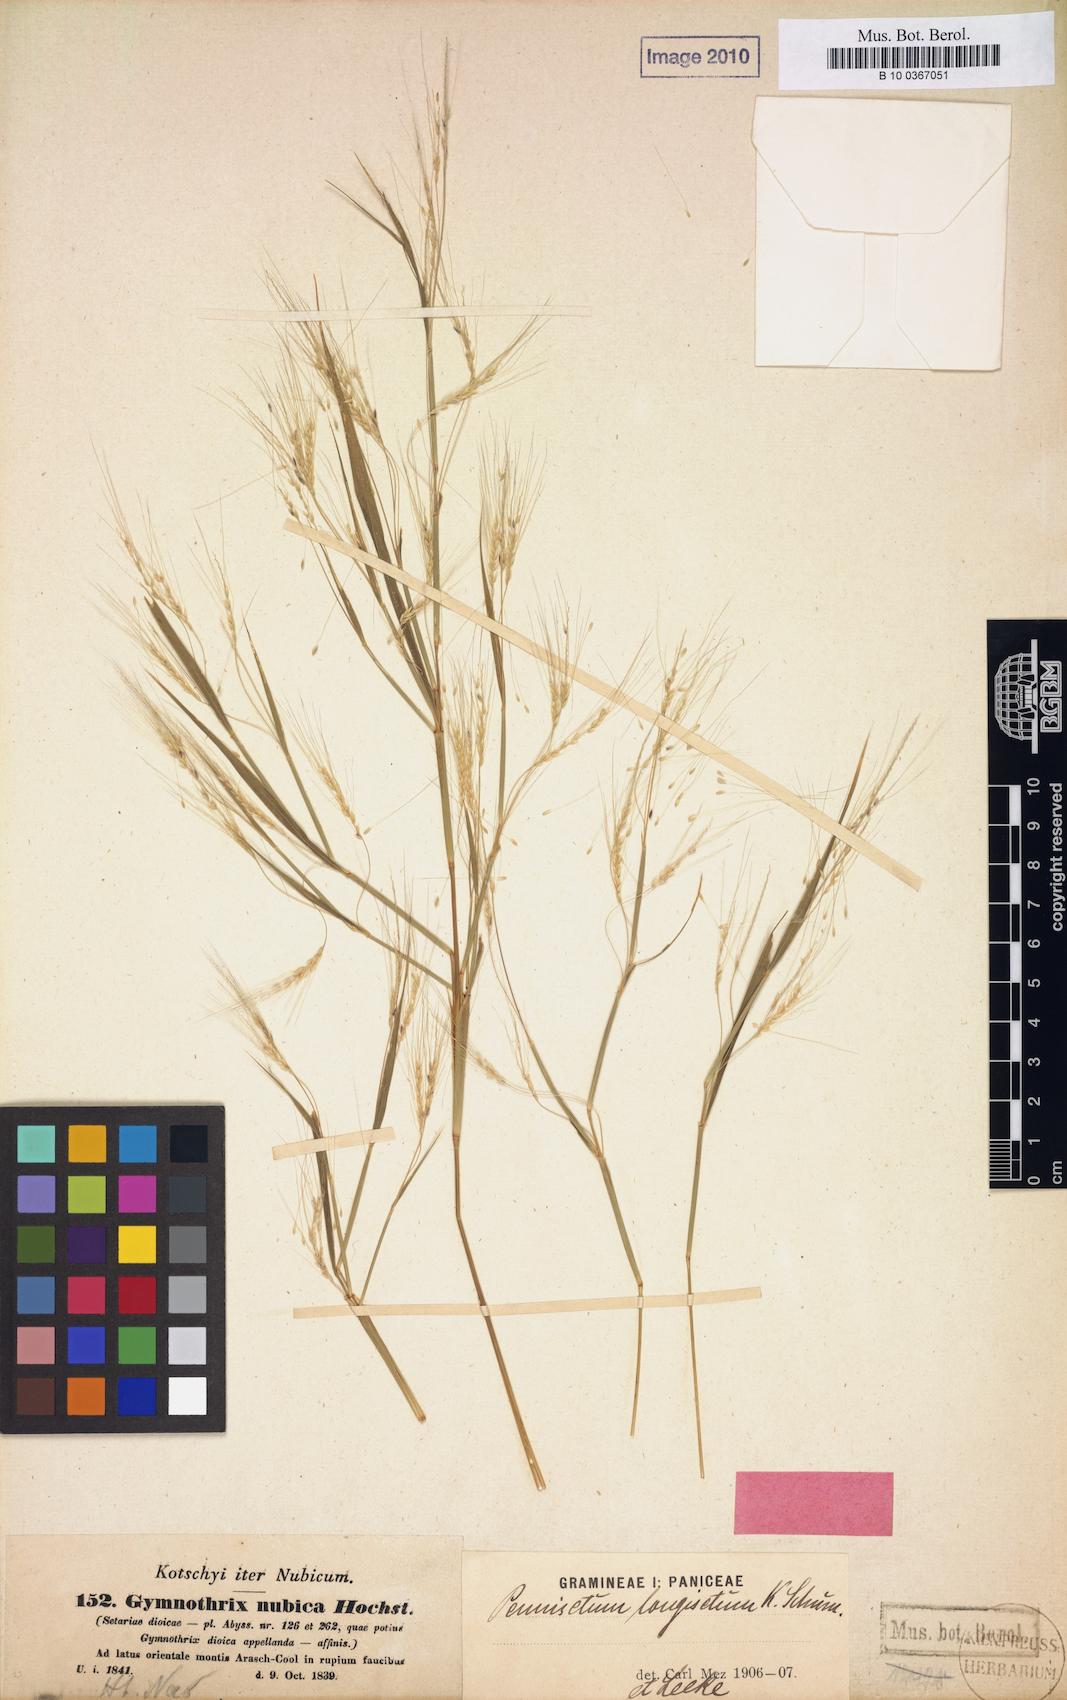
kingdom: Plantae
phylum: Tracheophyta
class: Liliopsida
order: Poales
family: Poaceae
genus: Cenchrus
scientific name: Cenchrus nubicus
